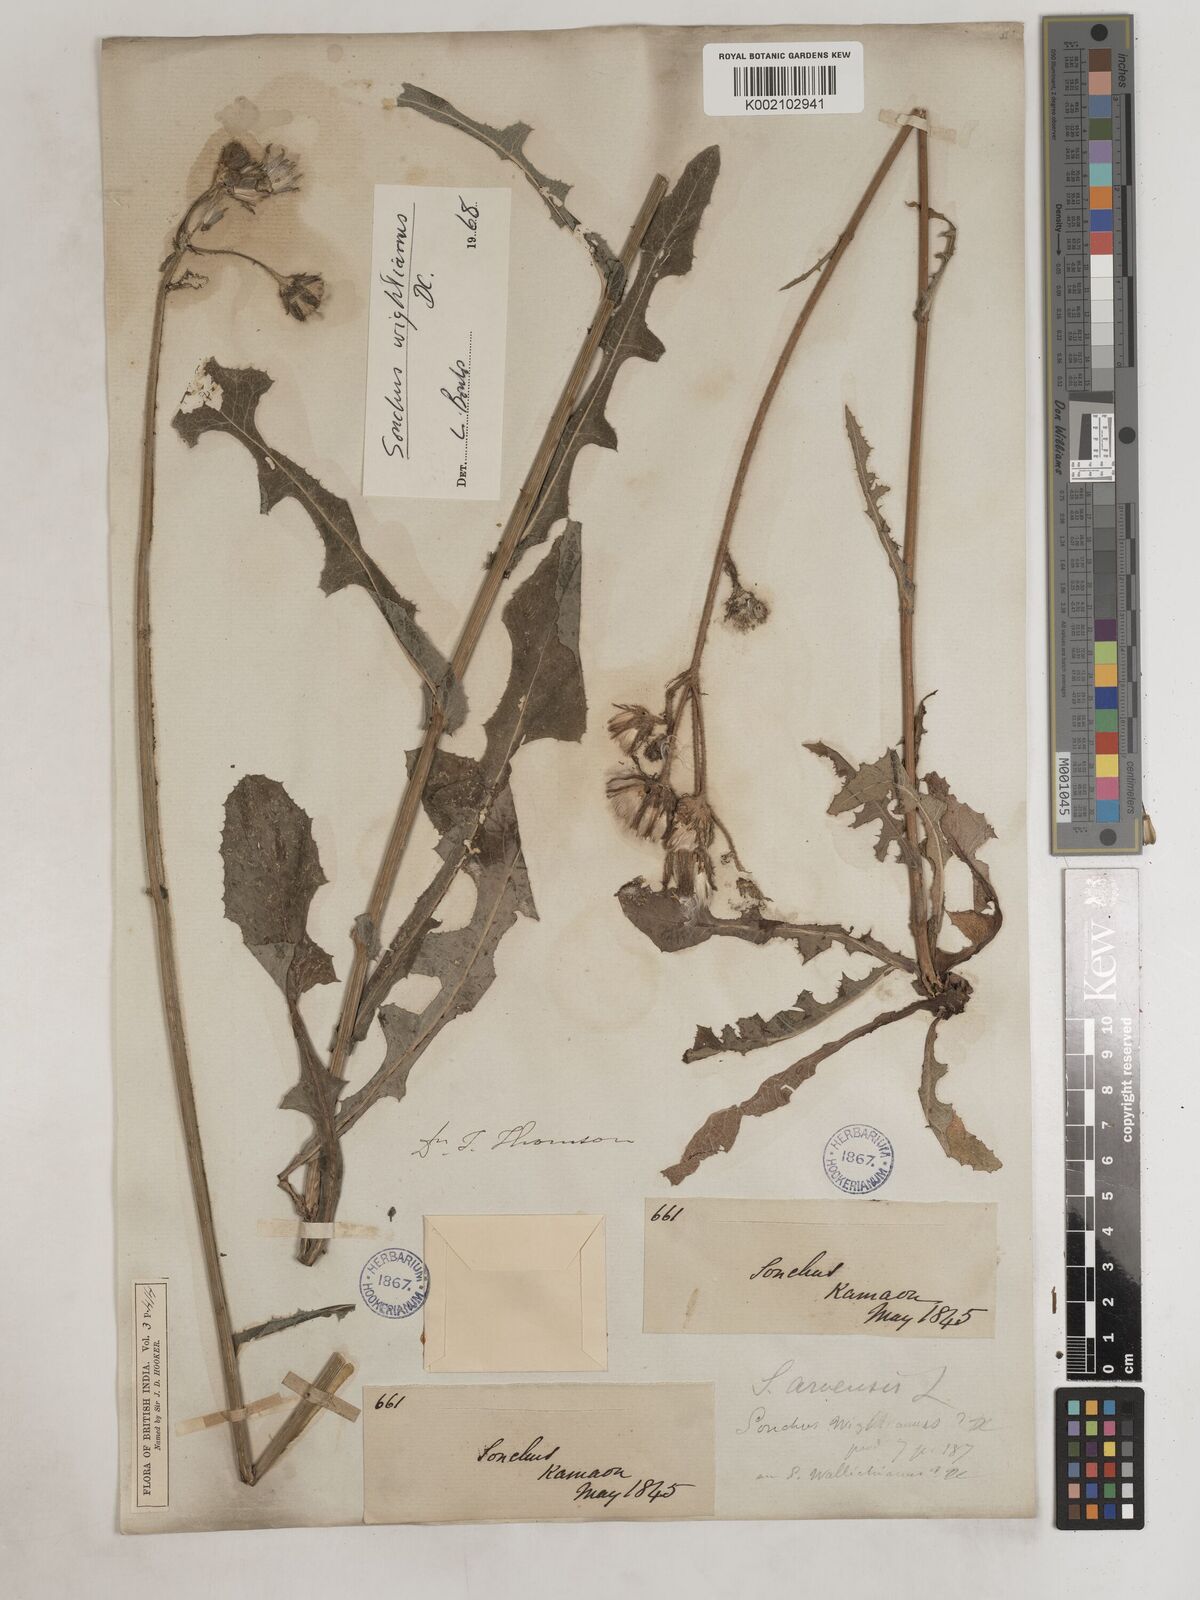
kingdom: Plantae
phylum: Tracheophyta
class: Magnoliopsida
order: Asterales
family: Asteraceae
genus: Sonchus
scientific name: Sonchus arvensis
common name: Perennial sow-thistle
